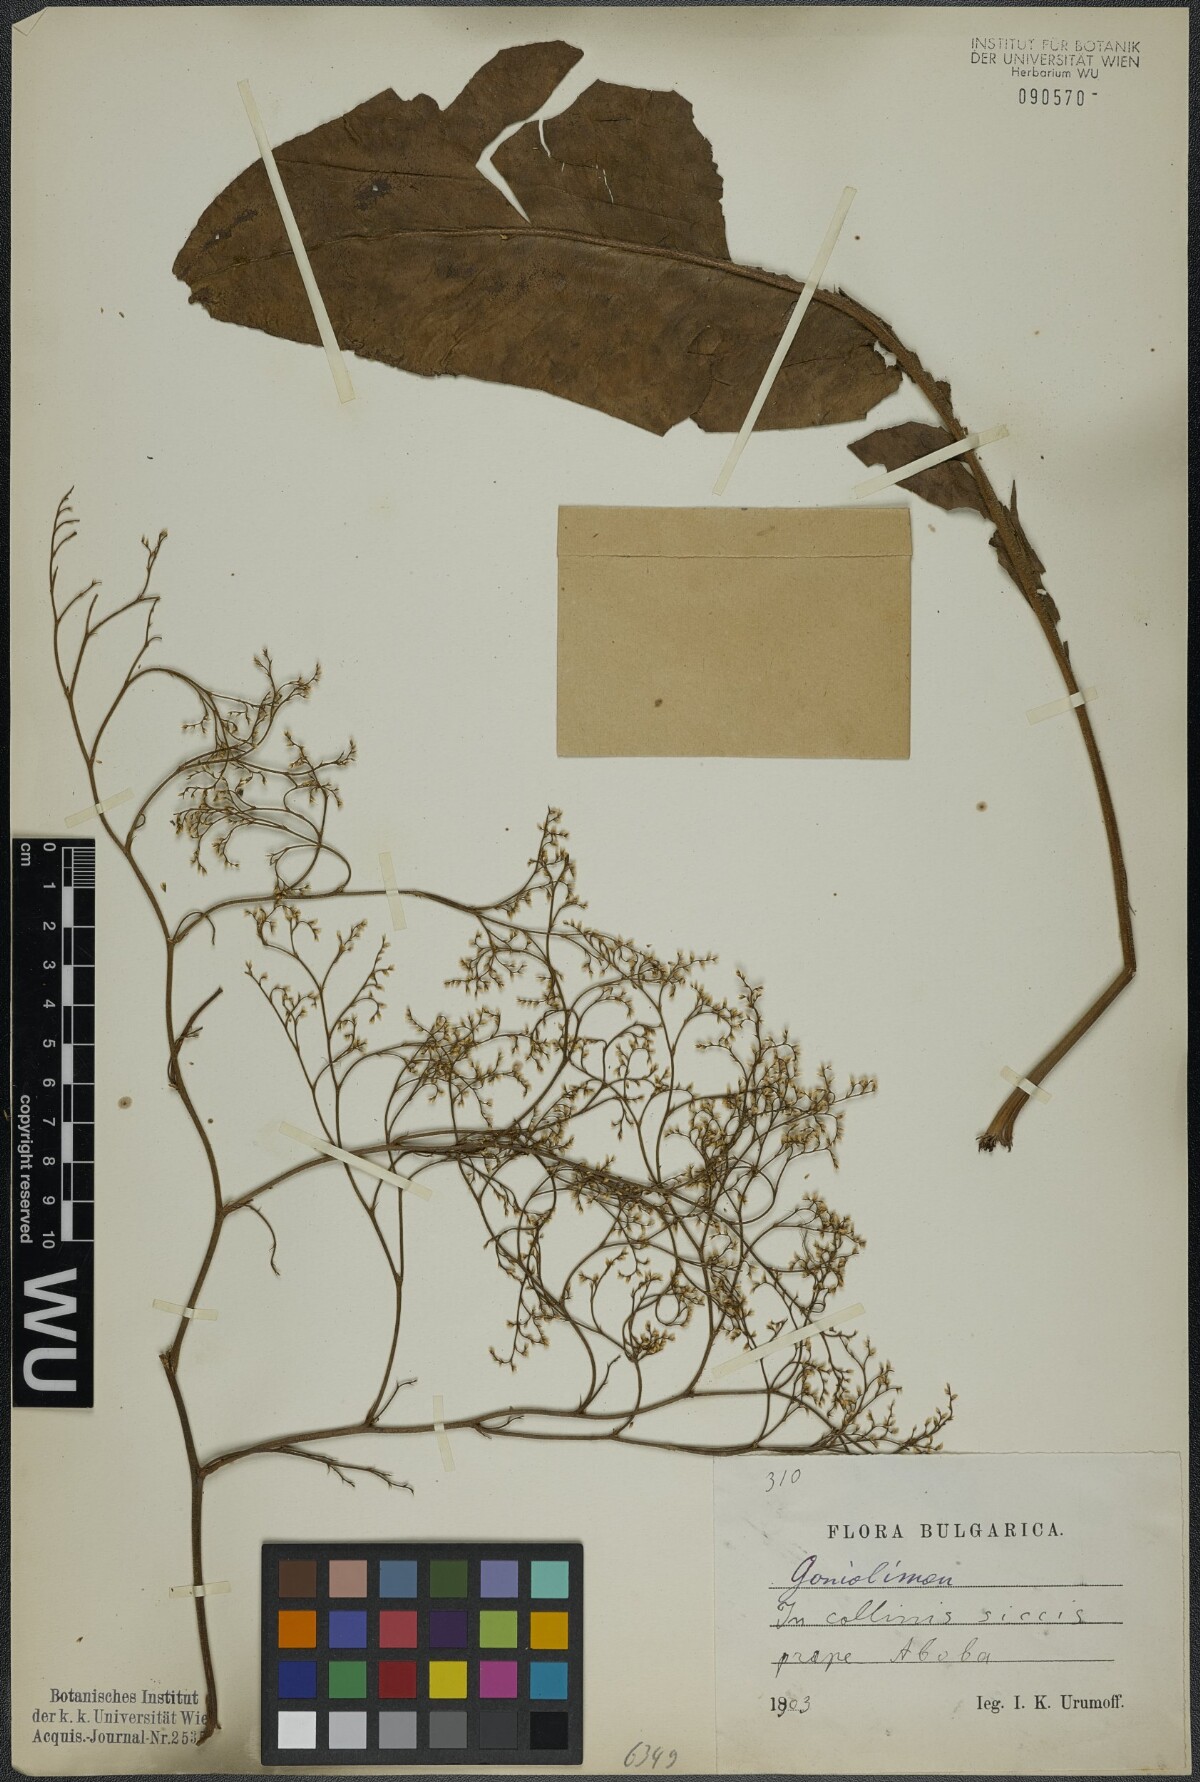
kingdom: Plantae
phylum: Tracheophyta
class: Magnoliopsida
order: Caryophyllales
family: Plumbaginaceae
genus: Goniolimon
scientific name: Goniolimon
